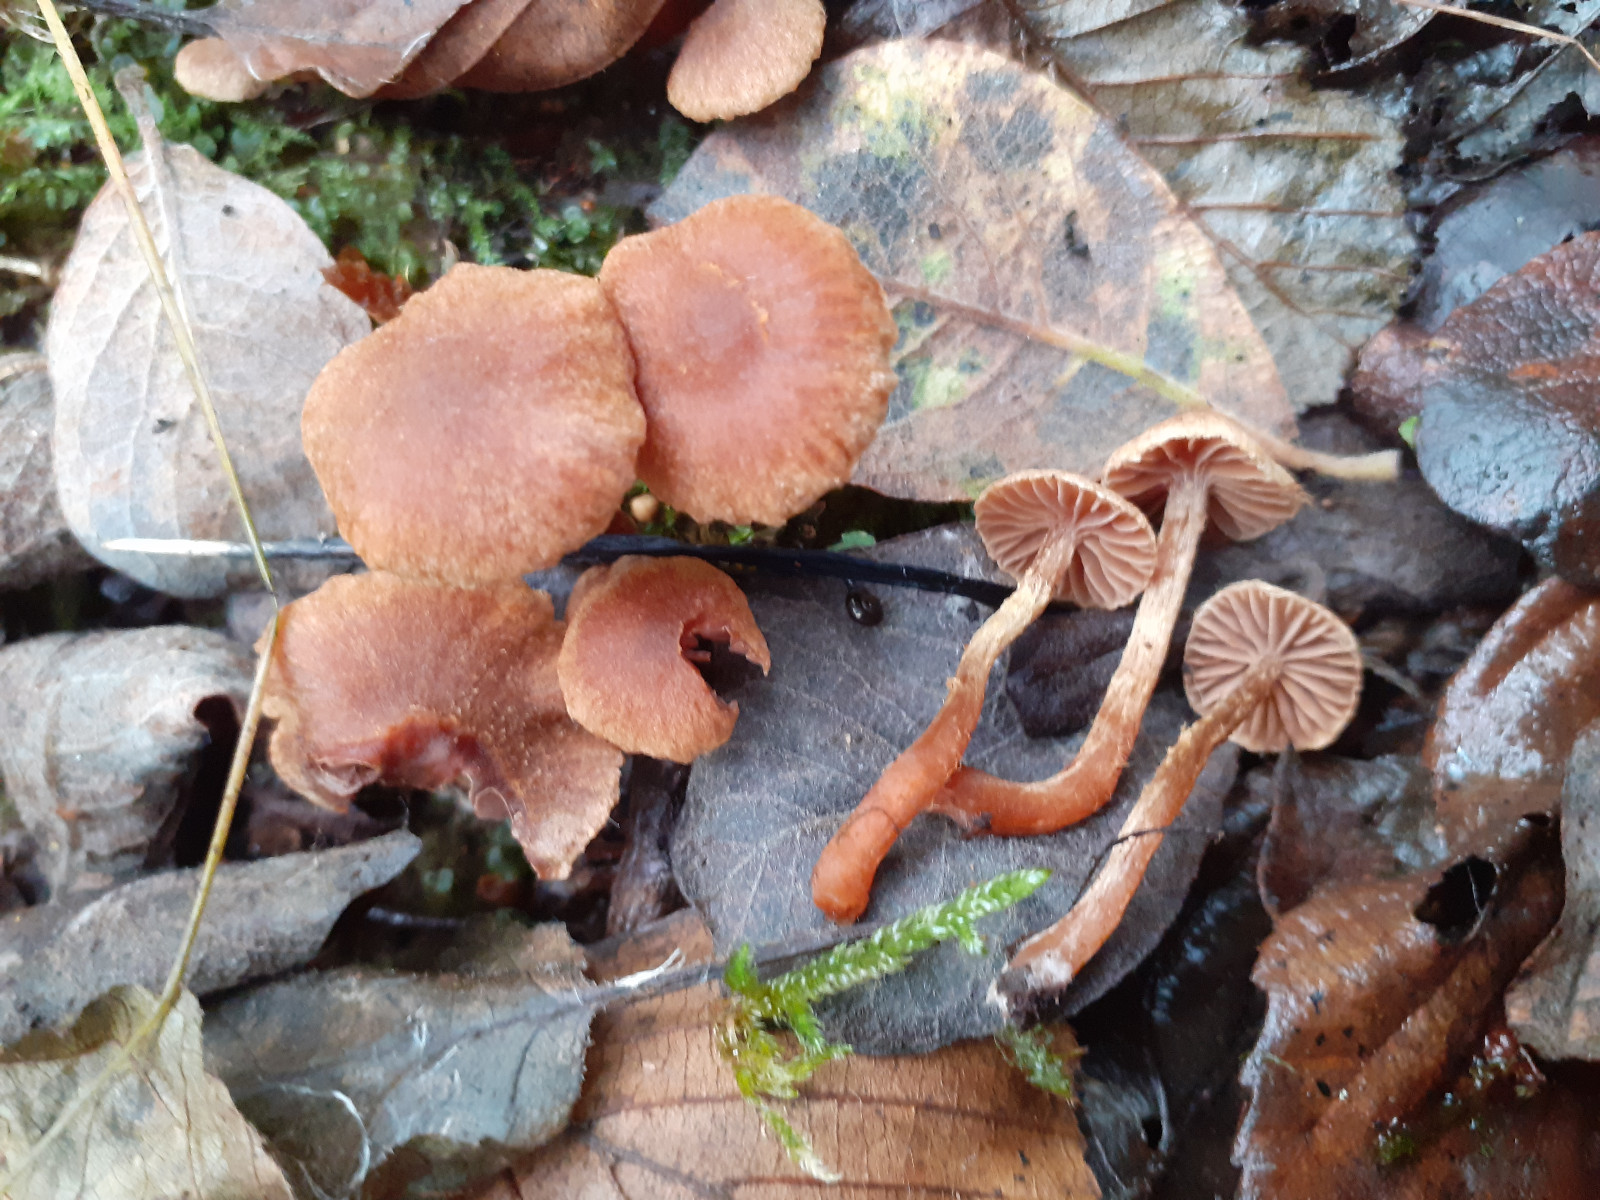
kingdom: Fungi
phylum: Basidiomycota
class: Agaricomycetes
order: Agaricales
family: Cortinariaceae
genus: Cortinarius
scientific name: Cortinarius helvelloides
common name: fjernbladet slørhat
